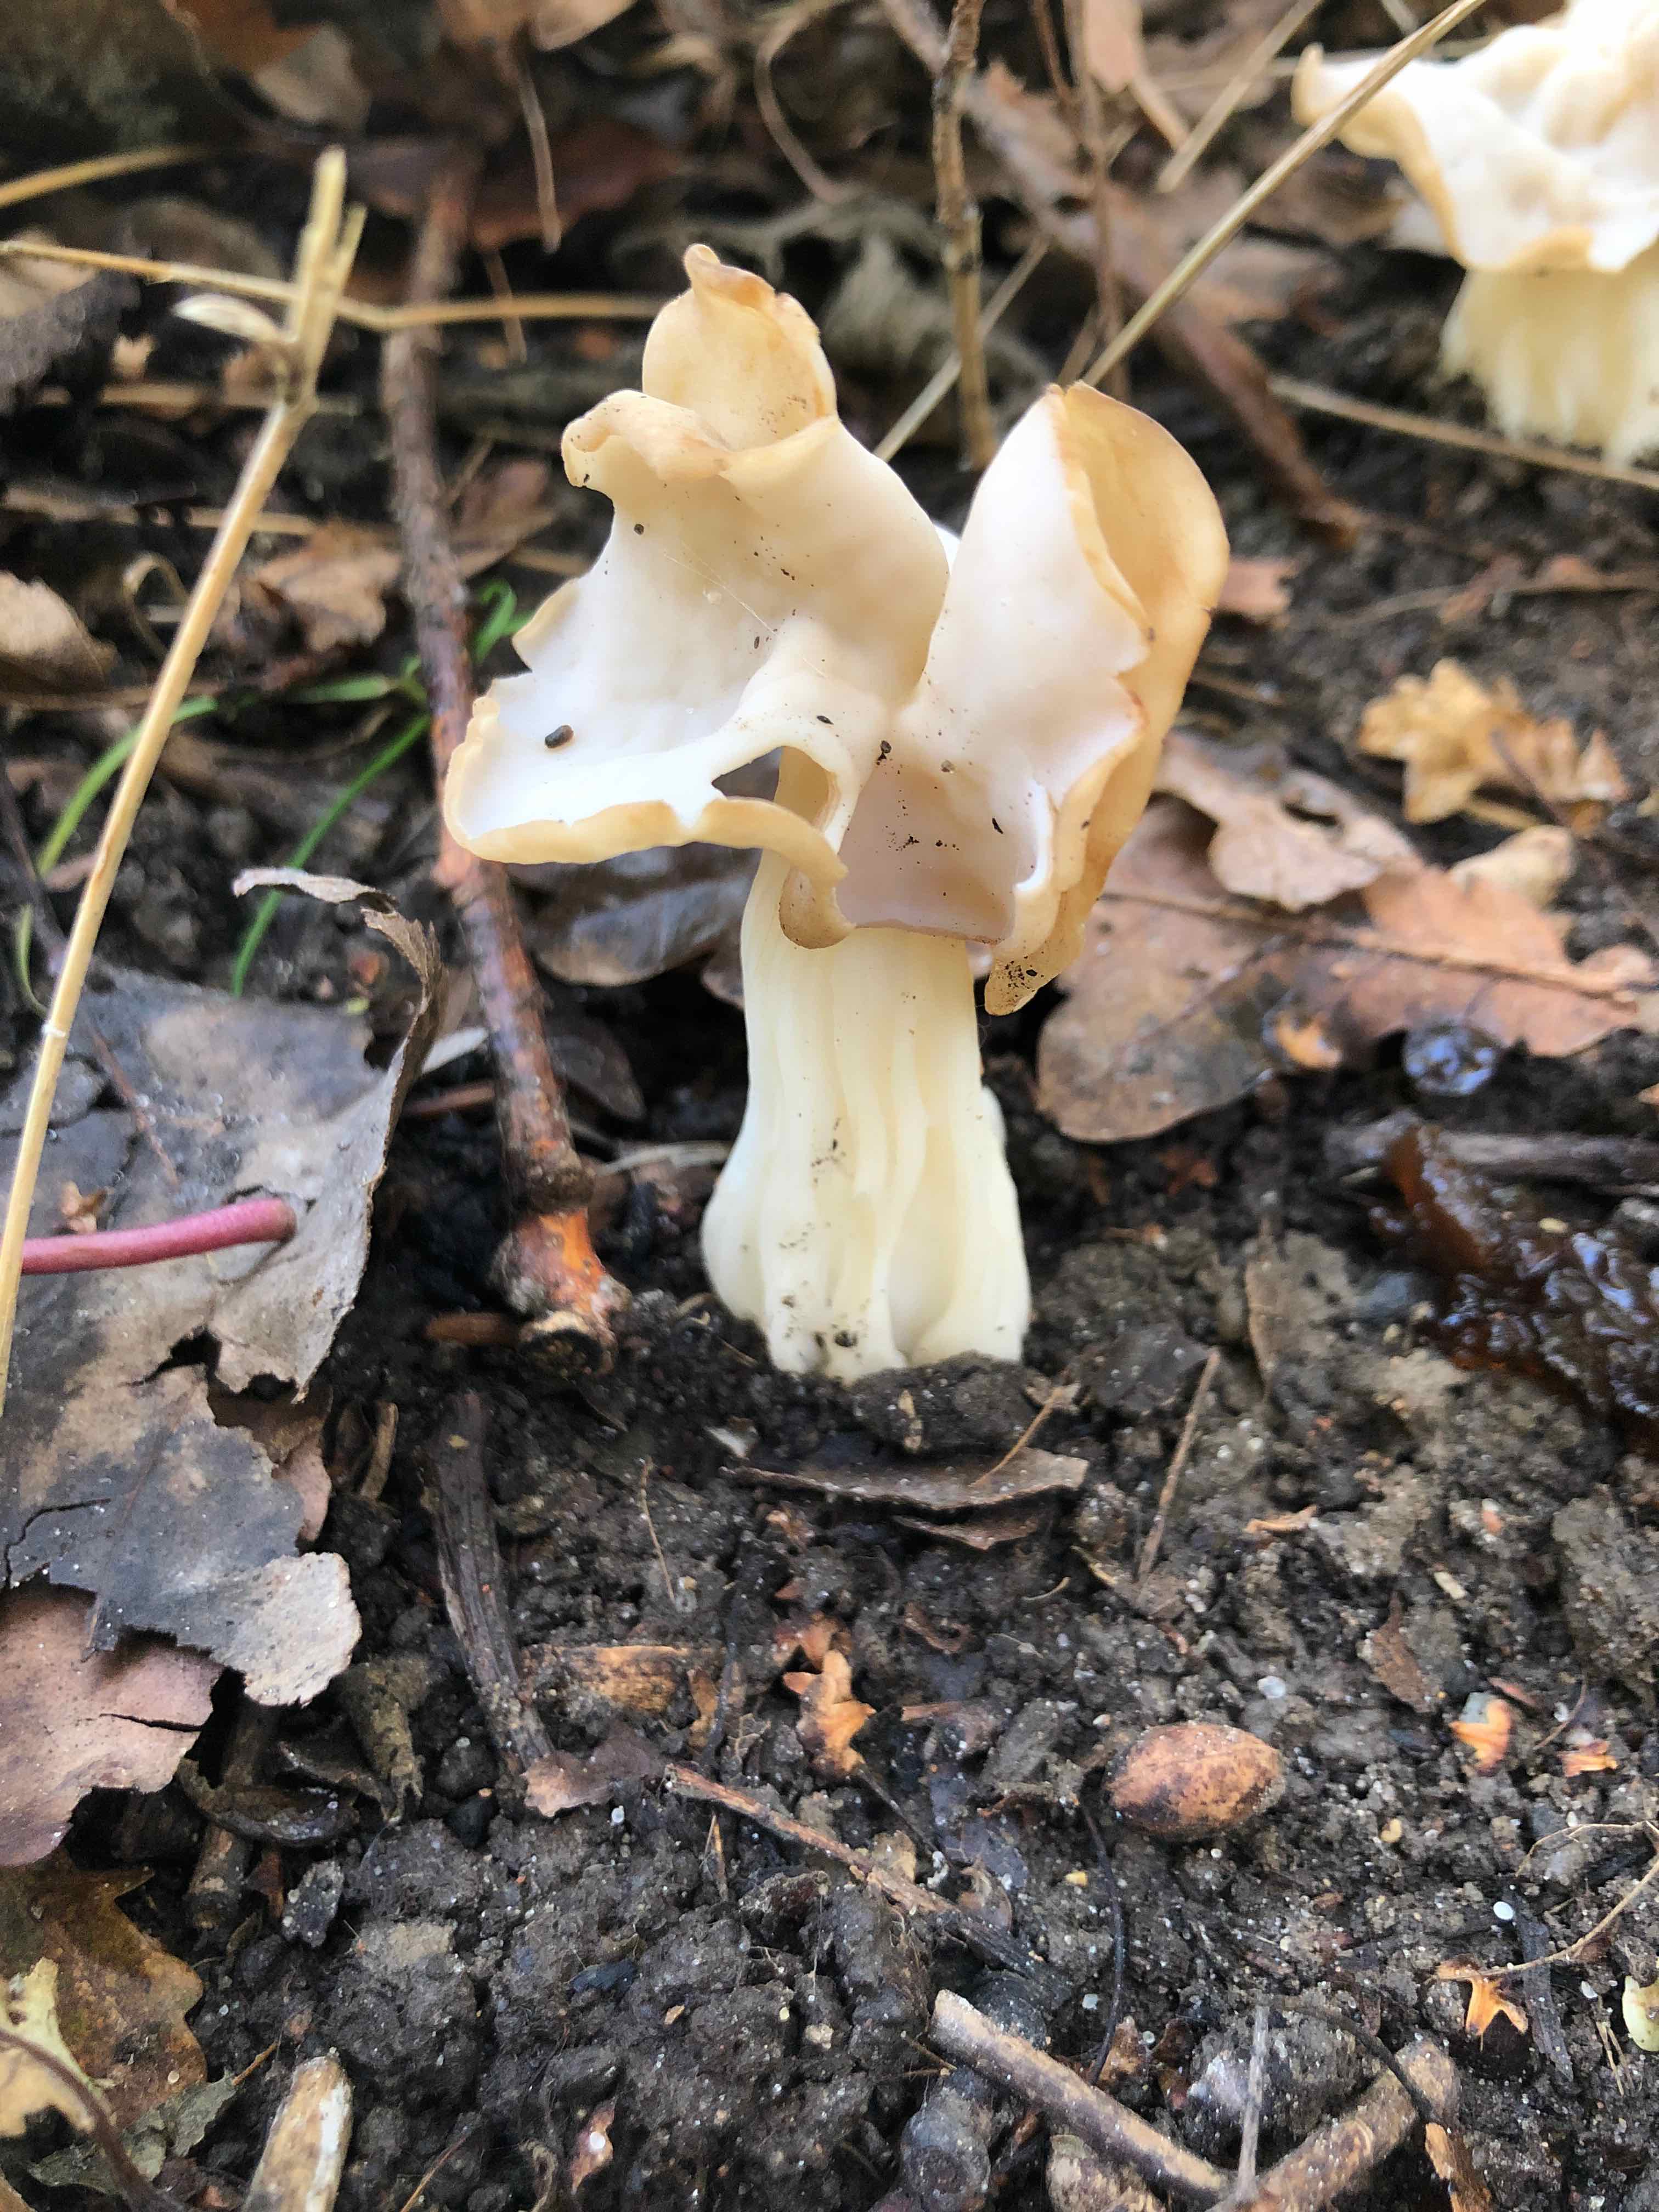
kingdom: Fungi
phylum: Ascomycota
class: Pezizomycetes
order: Pezizales
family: Helvellaceae
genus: Helvella
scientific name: Helvella crispa
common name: kruset foldhat
